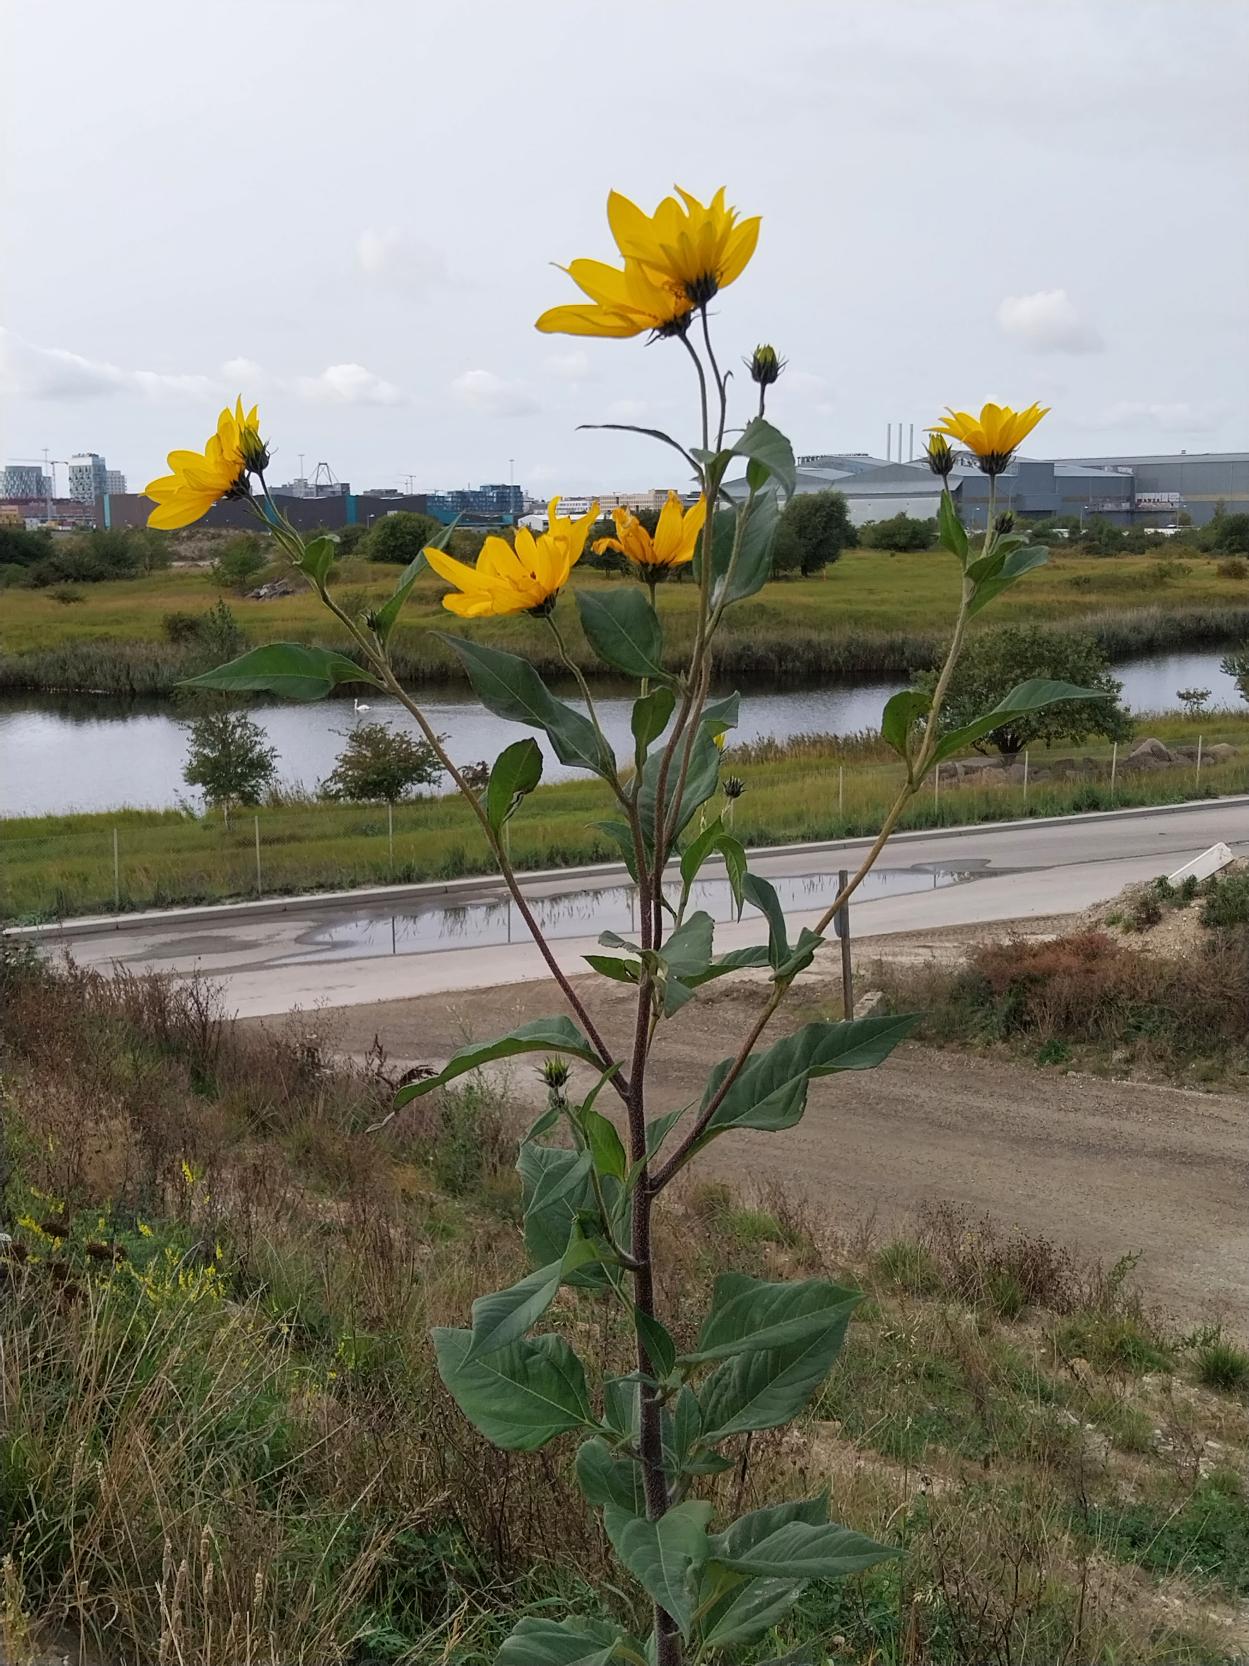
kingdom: Plantae
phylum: Tracheophyta
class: Magnoliopsida
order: Asterales
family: Asteraceae
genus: Helianthus
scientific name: Helianthus tuberosus
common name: Jordskok
